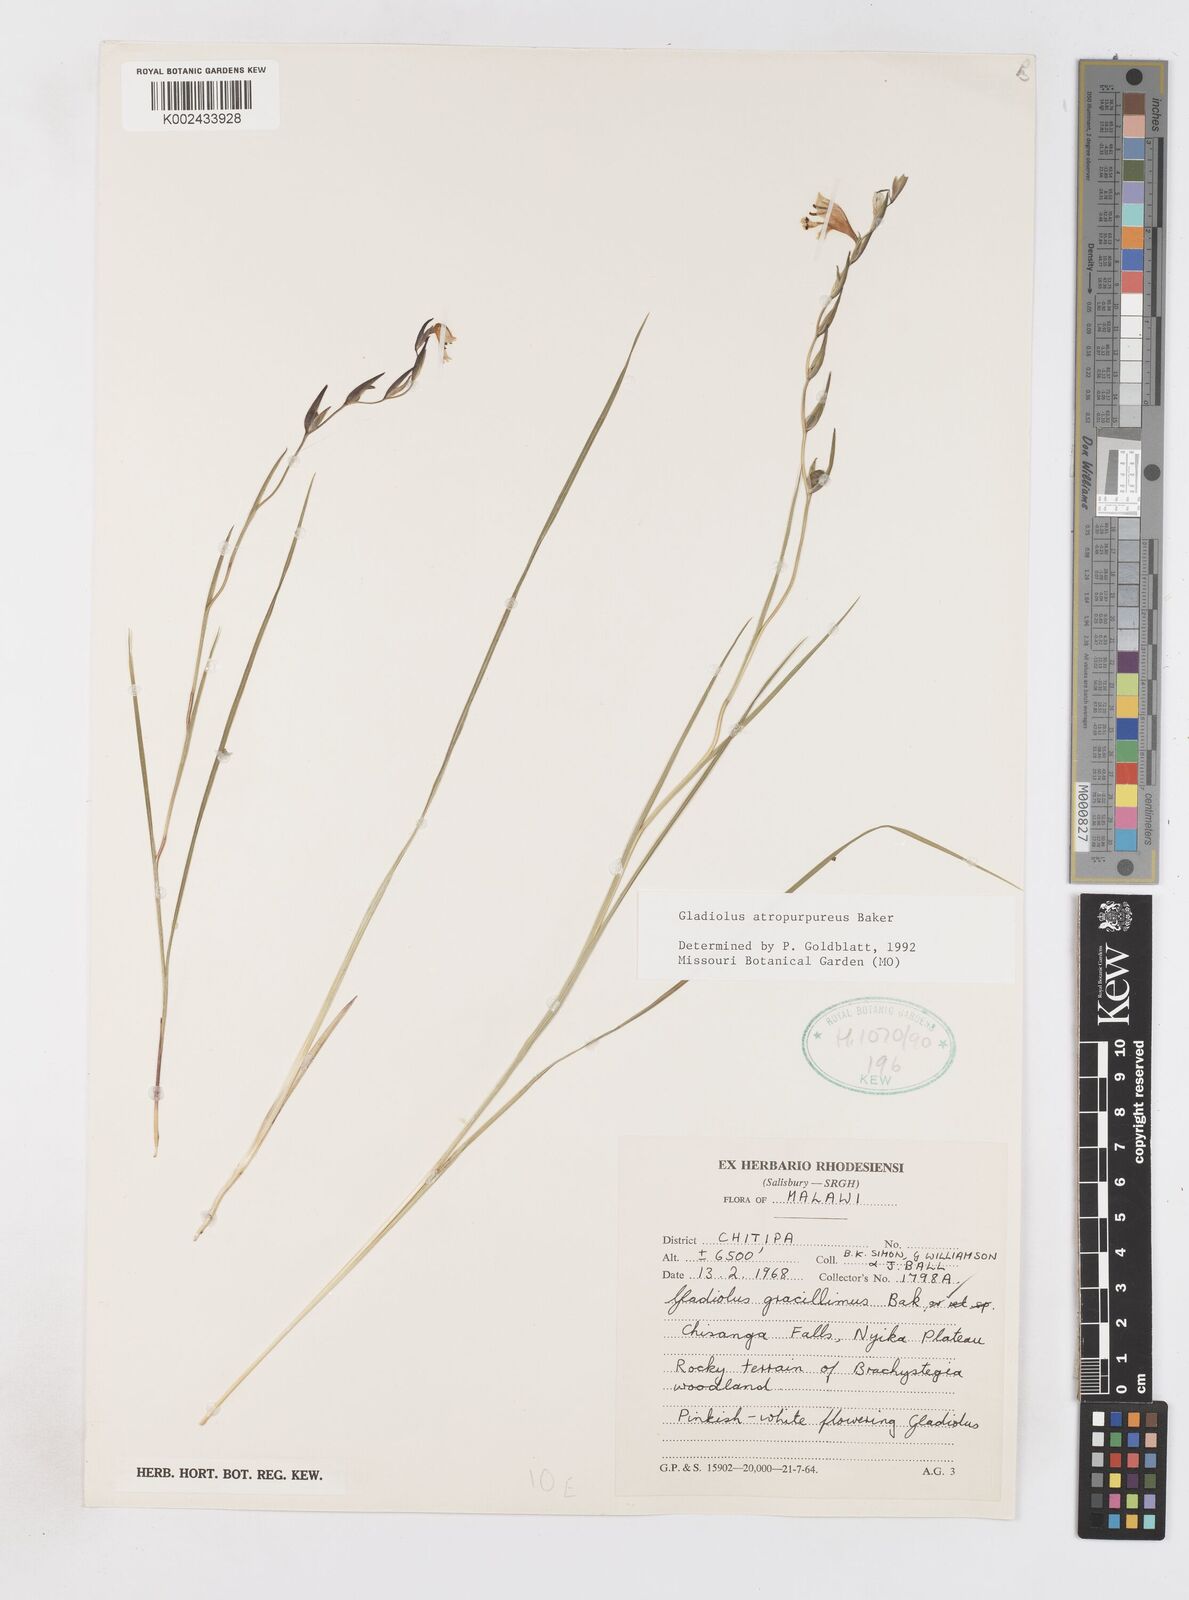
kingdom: Plantae
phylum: Tracheophyta
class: Liliopsida
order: Asparagales
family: Iridaceae
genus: Gladiolus
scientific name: Gladiolus atropurpureus
